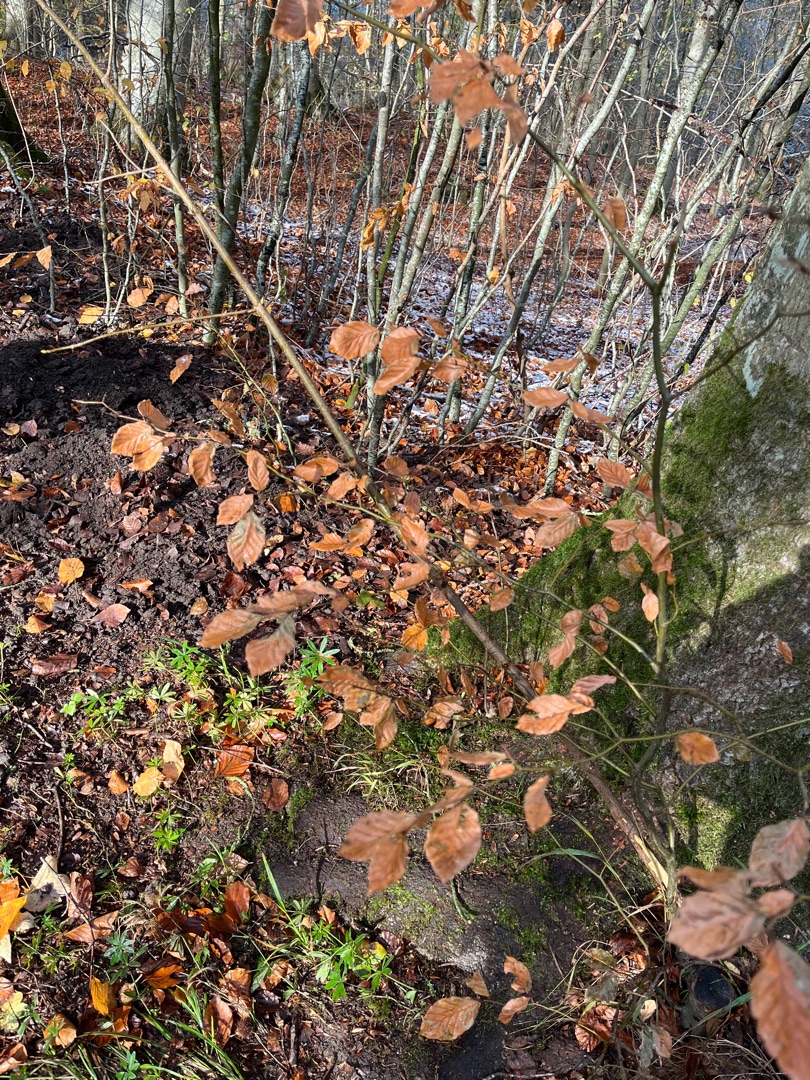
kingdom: Plantae
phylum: Tracheophyta
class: Magnoliopsida
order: Fagales
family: Fagaceae
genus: Fagus
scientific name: Fagus sylvatica
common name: Bøg
